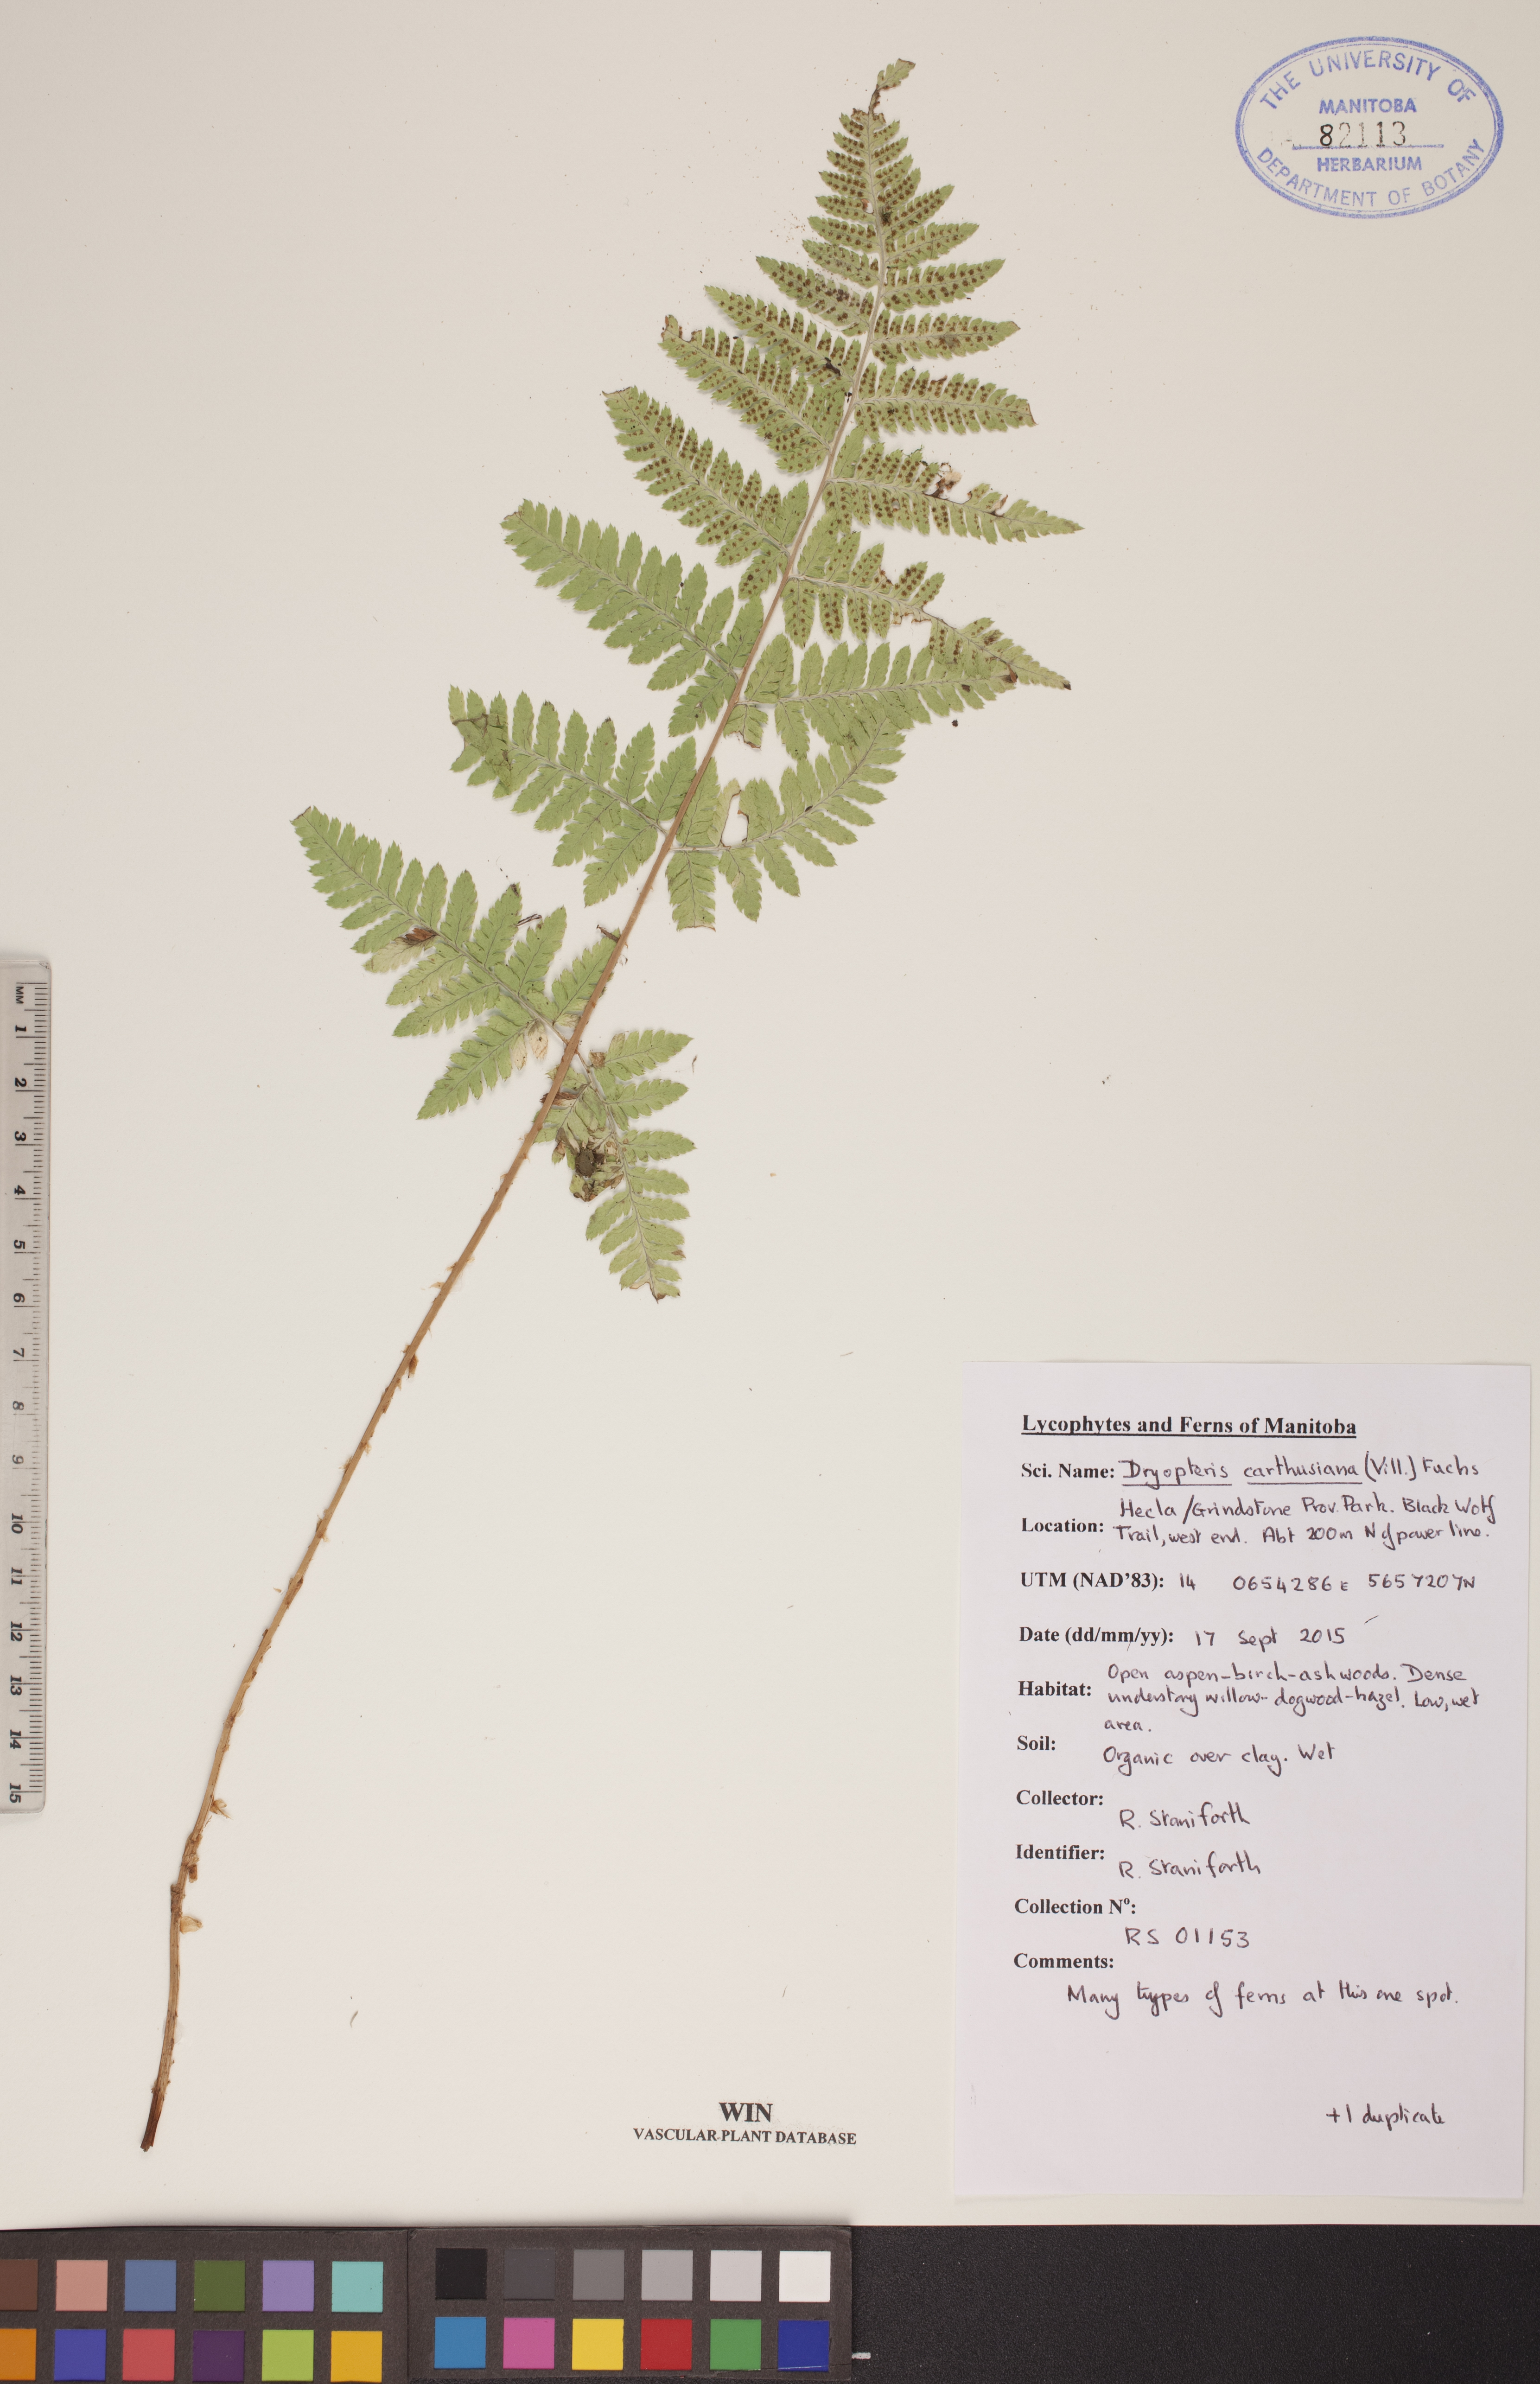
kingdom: Plantae
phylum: Tracheophyta
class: Polypodiopsida
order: Polypodiales
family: Dryopteridaceae
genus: Dryopteris
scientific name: Dryopteris carthusiana
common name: Narrow buckler-fern
